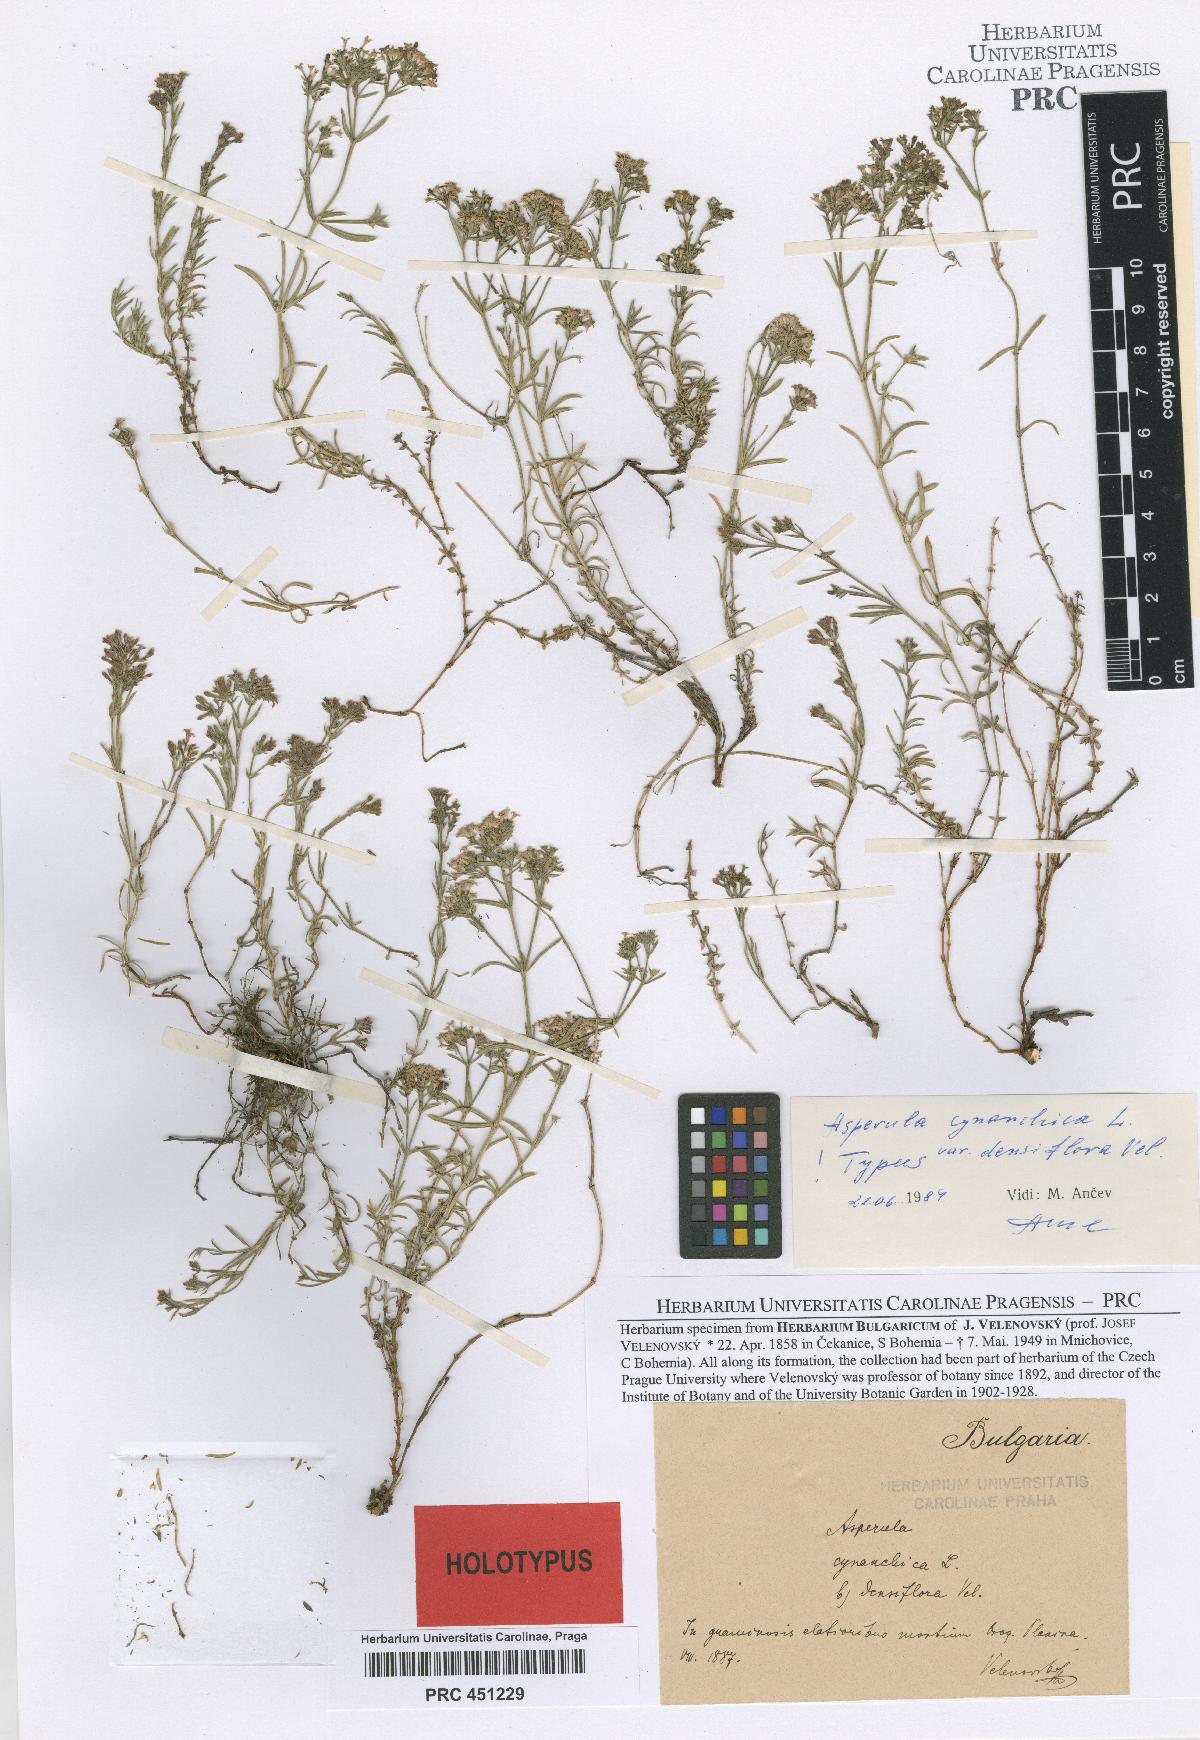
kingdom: Plantae
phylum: Tracheophyta
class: Magnoliopsida
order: Gentianales
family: Rubiaceae
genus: Cynanchica
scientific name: Cynanchica pyrenaica
